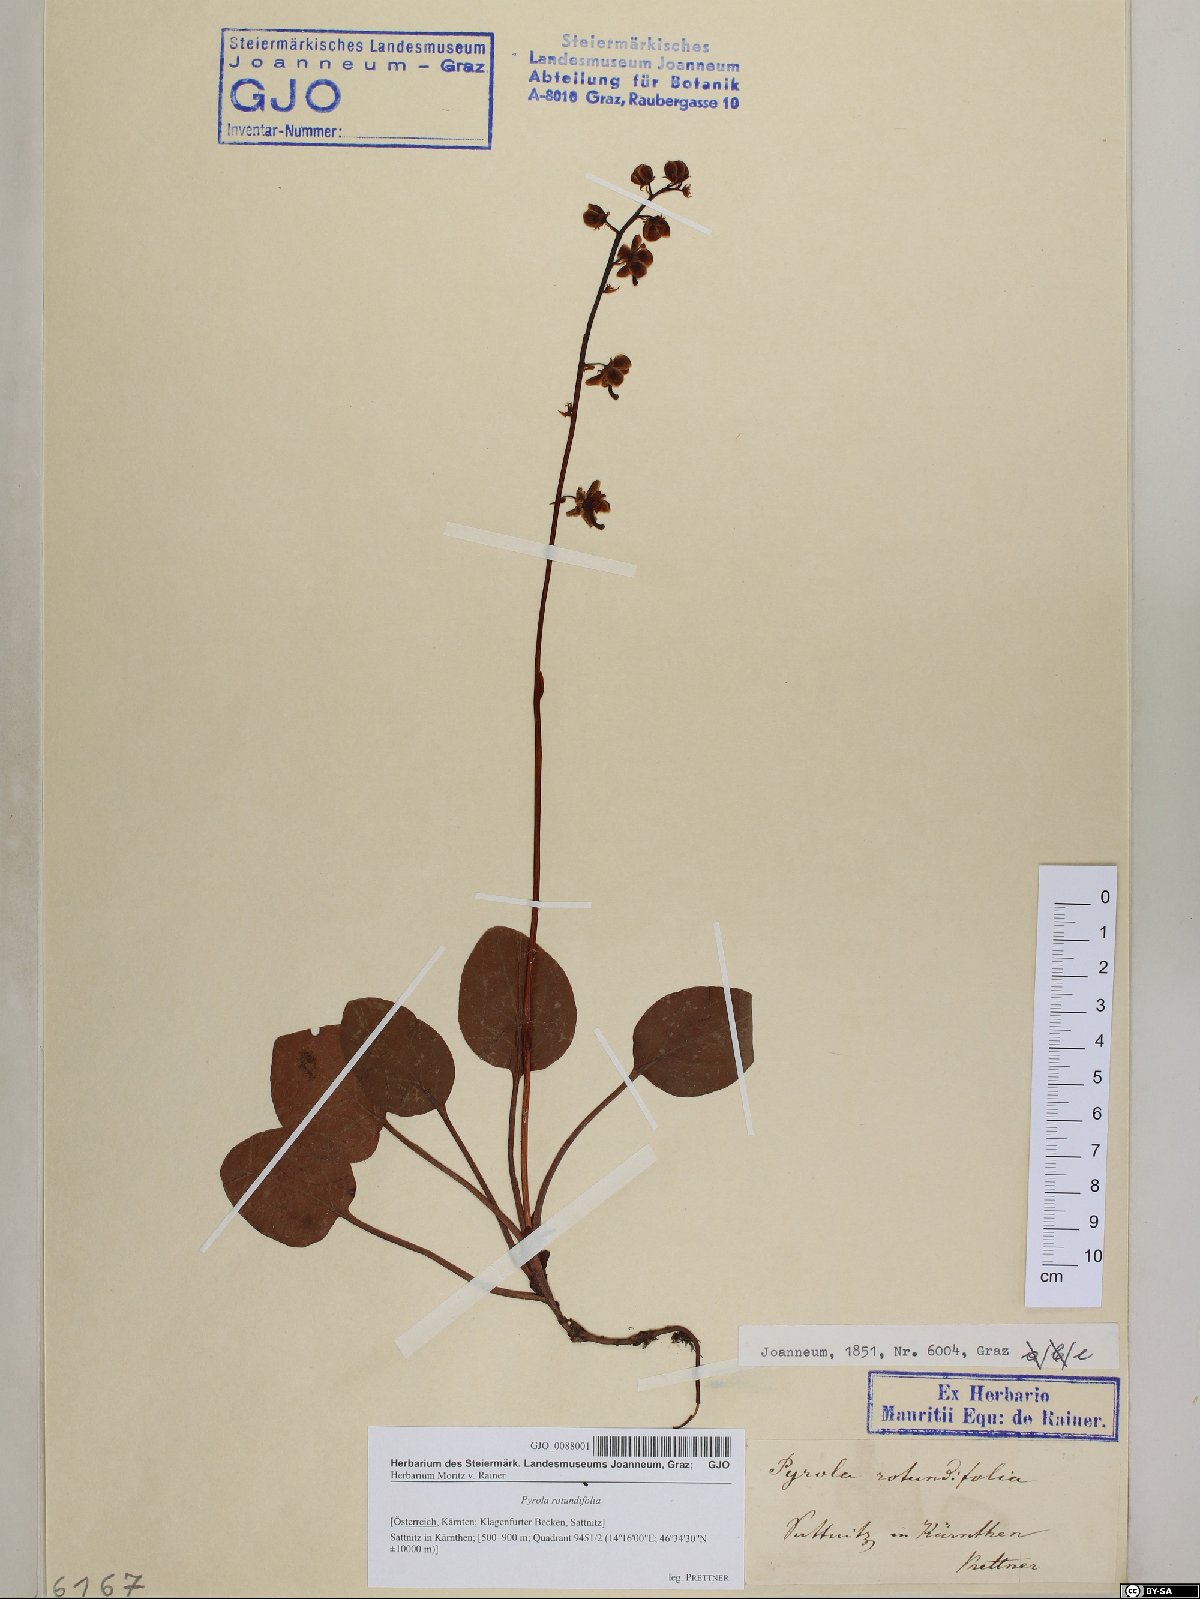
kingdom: Plantae
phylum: Tracheophyta
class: Magnoliopsida
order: Ericales
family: Ericaceae
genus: Pyrola
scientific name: Pyrola rotundifolia
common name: Round-leaved wintergreen
